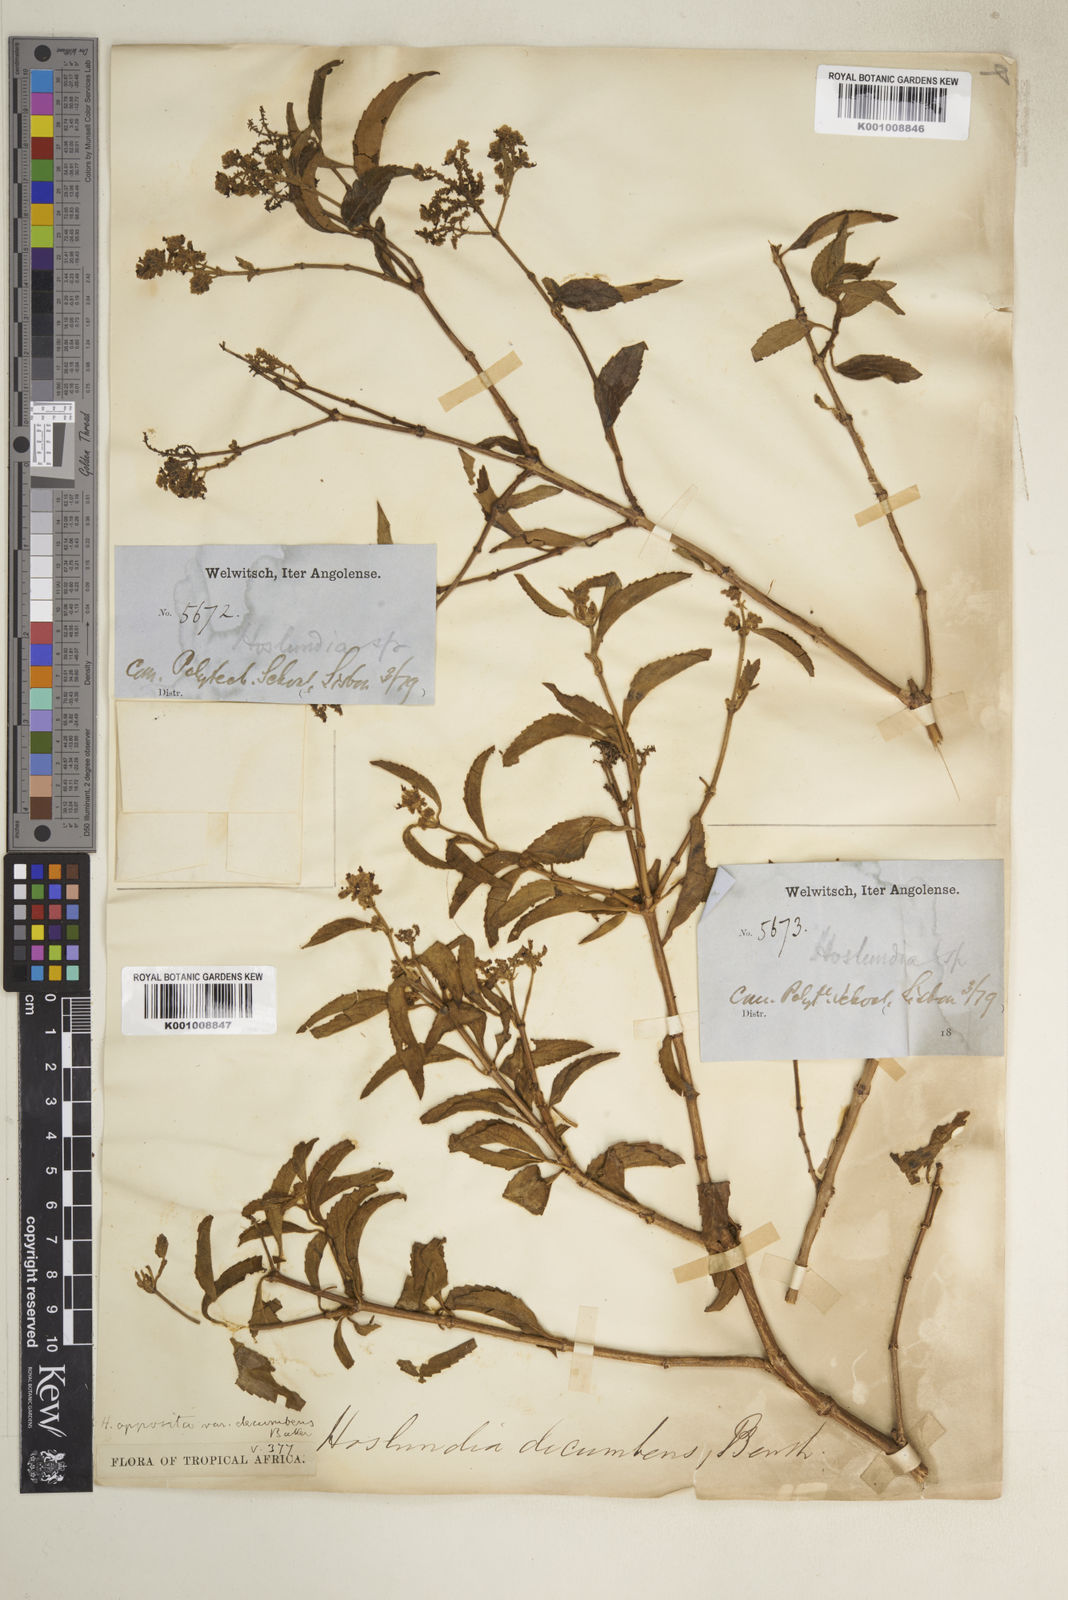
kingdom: Plantae
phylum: Tracheophyta
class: Magnoliopsida
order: Lamiales
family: Lamiaceae
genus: Hoslundia
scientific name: Hoslundia opposita
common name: Kamyuye
